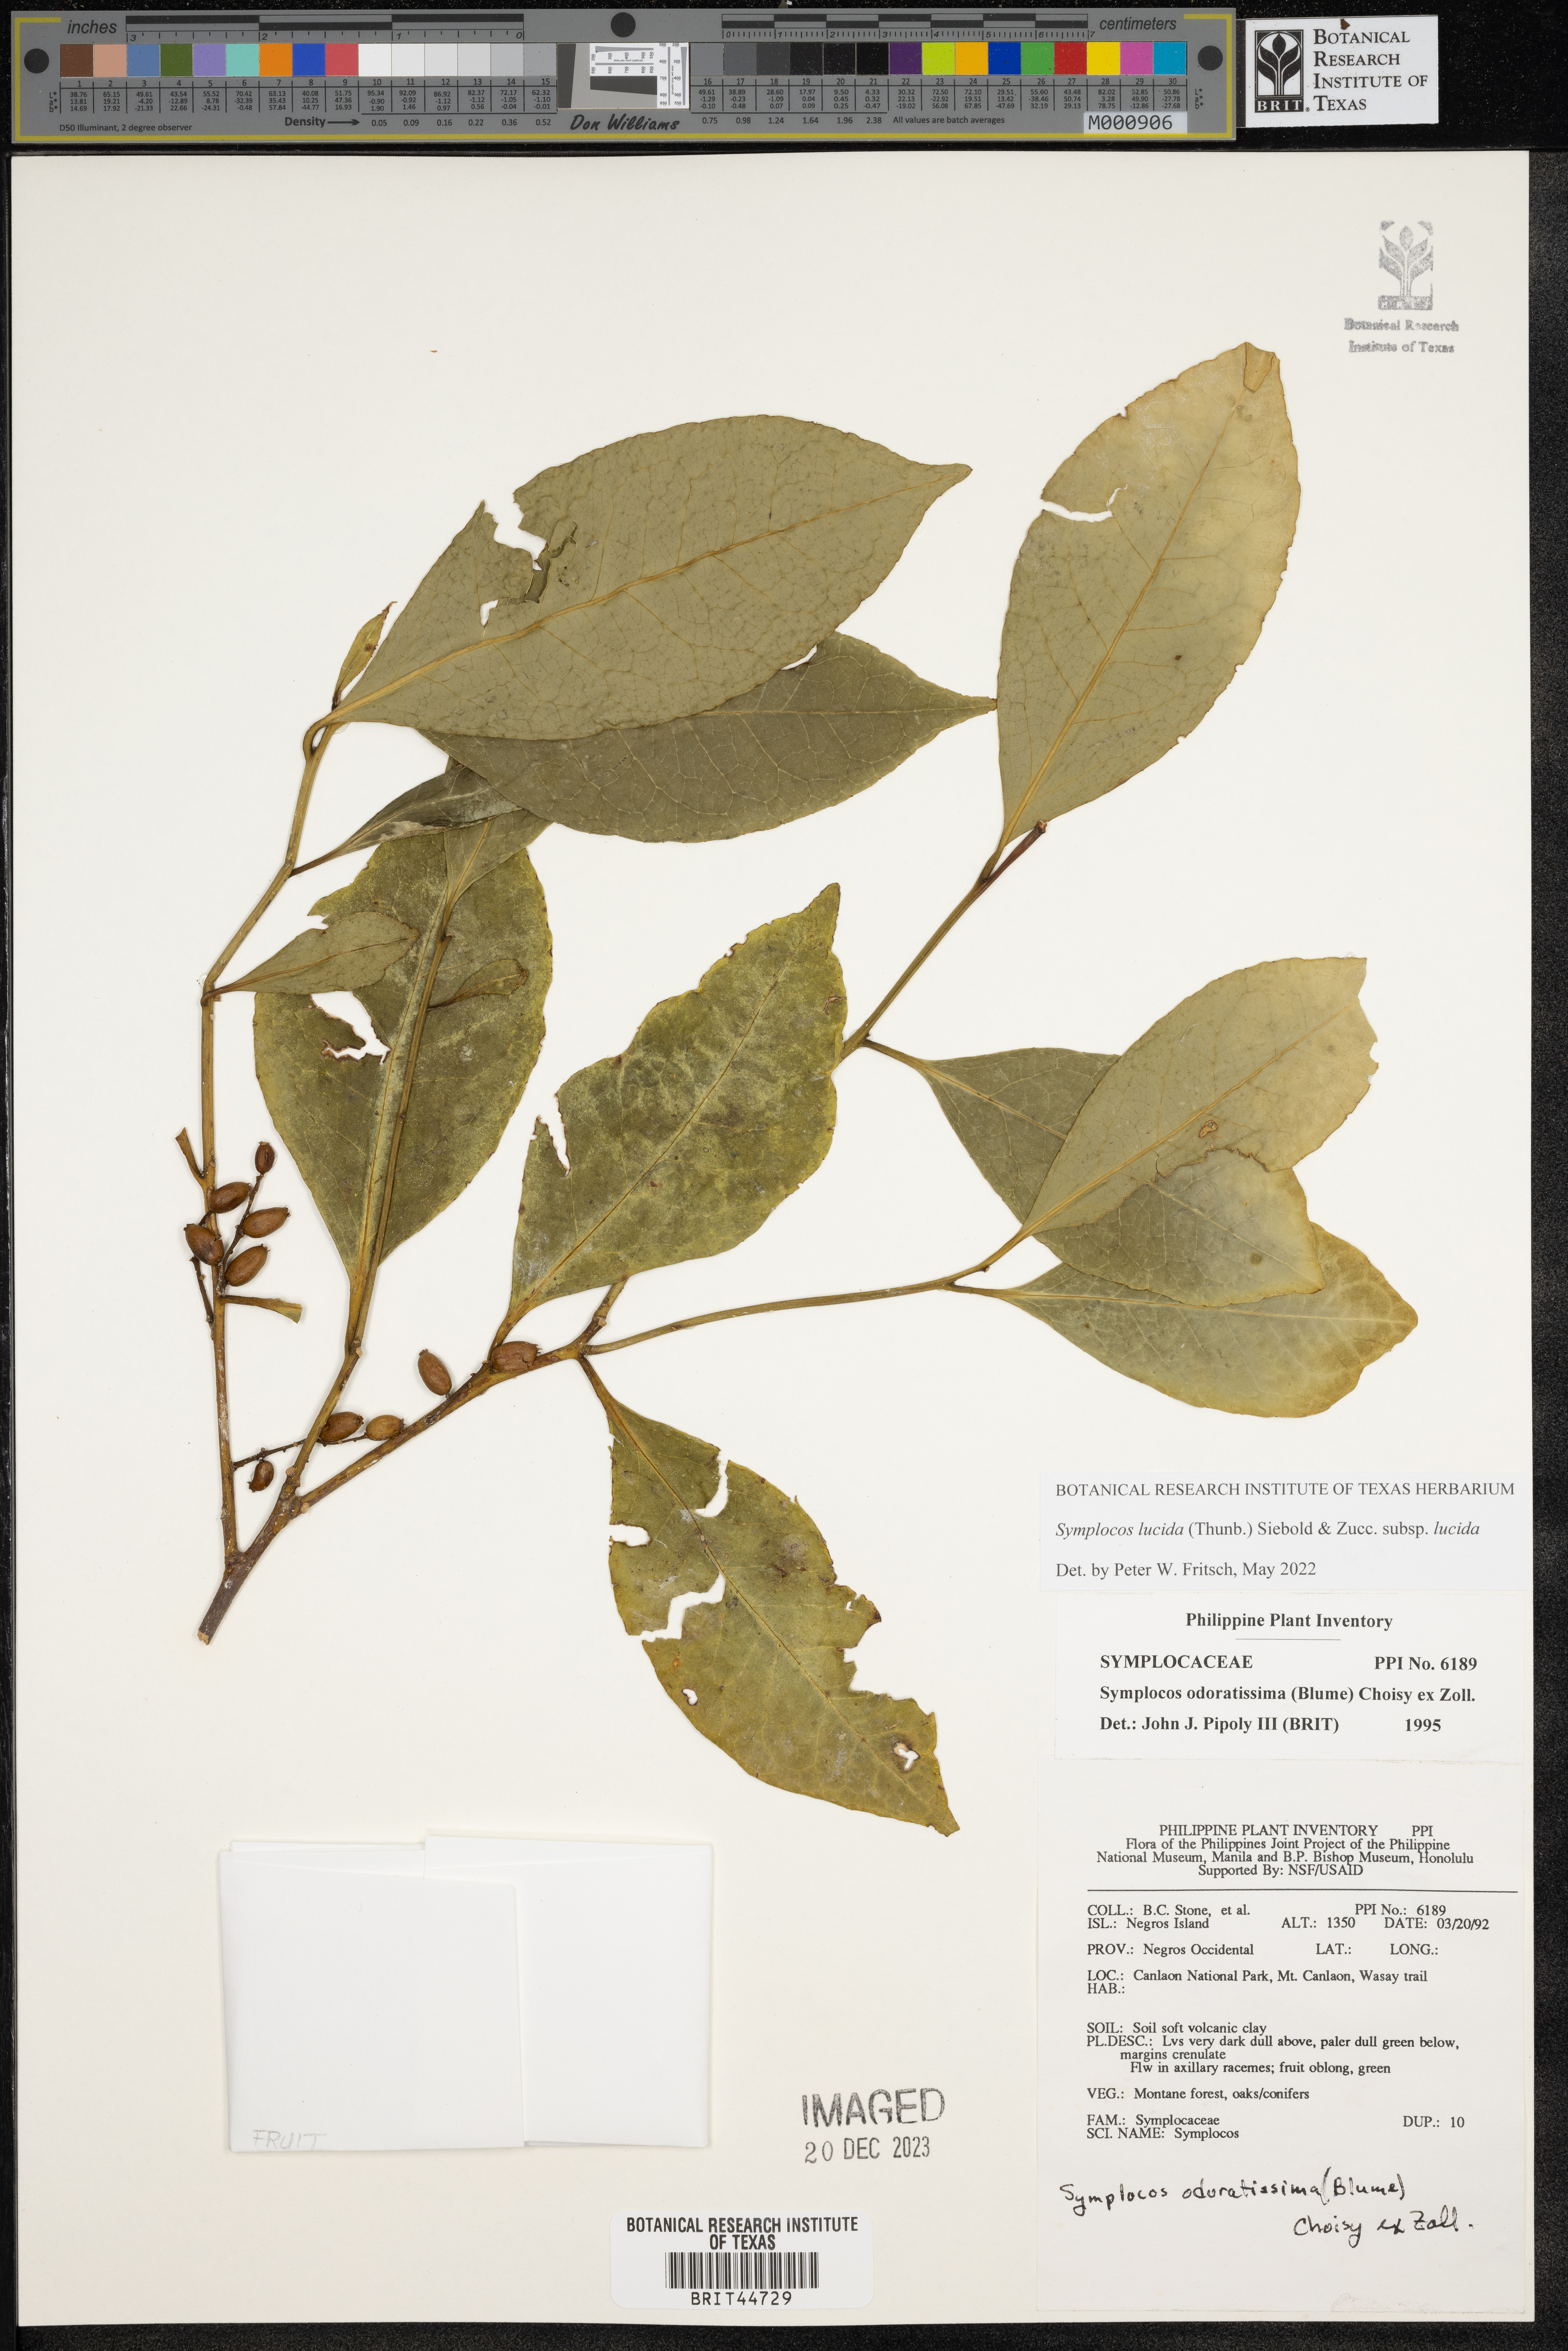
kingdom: Plantae
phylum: Tracheophyta
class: Magnoliopsida
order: Ericales
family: Symplocaceae
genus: Symplocos
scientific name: Symplocos odoratissima
